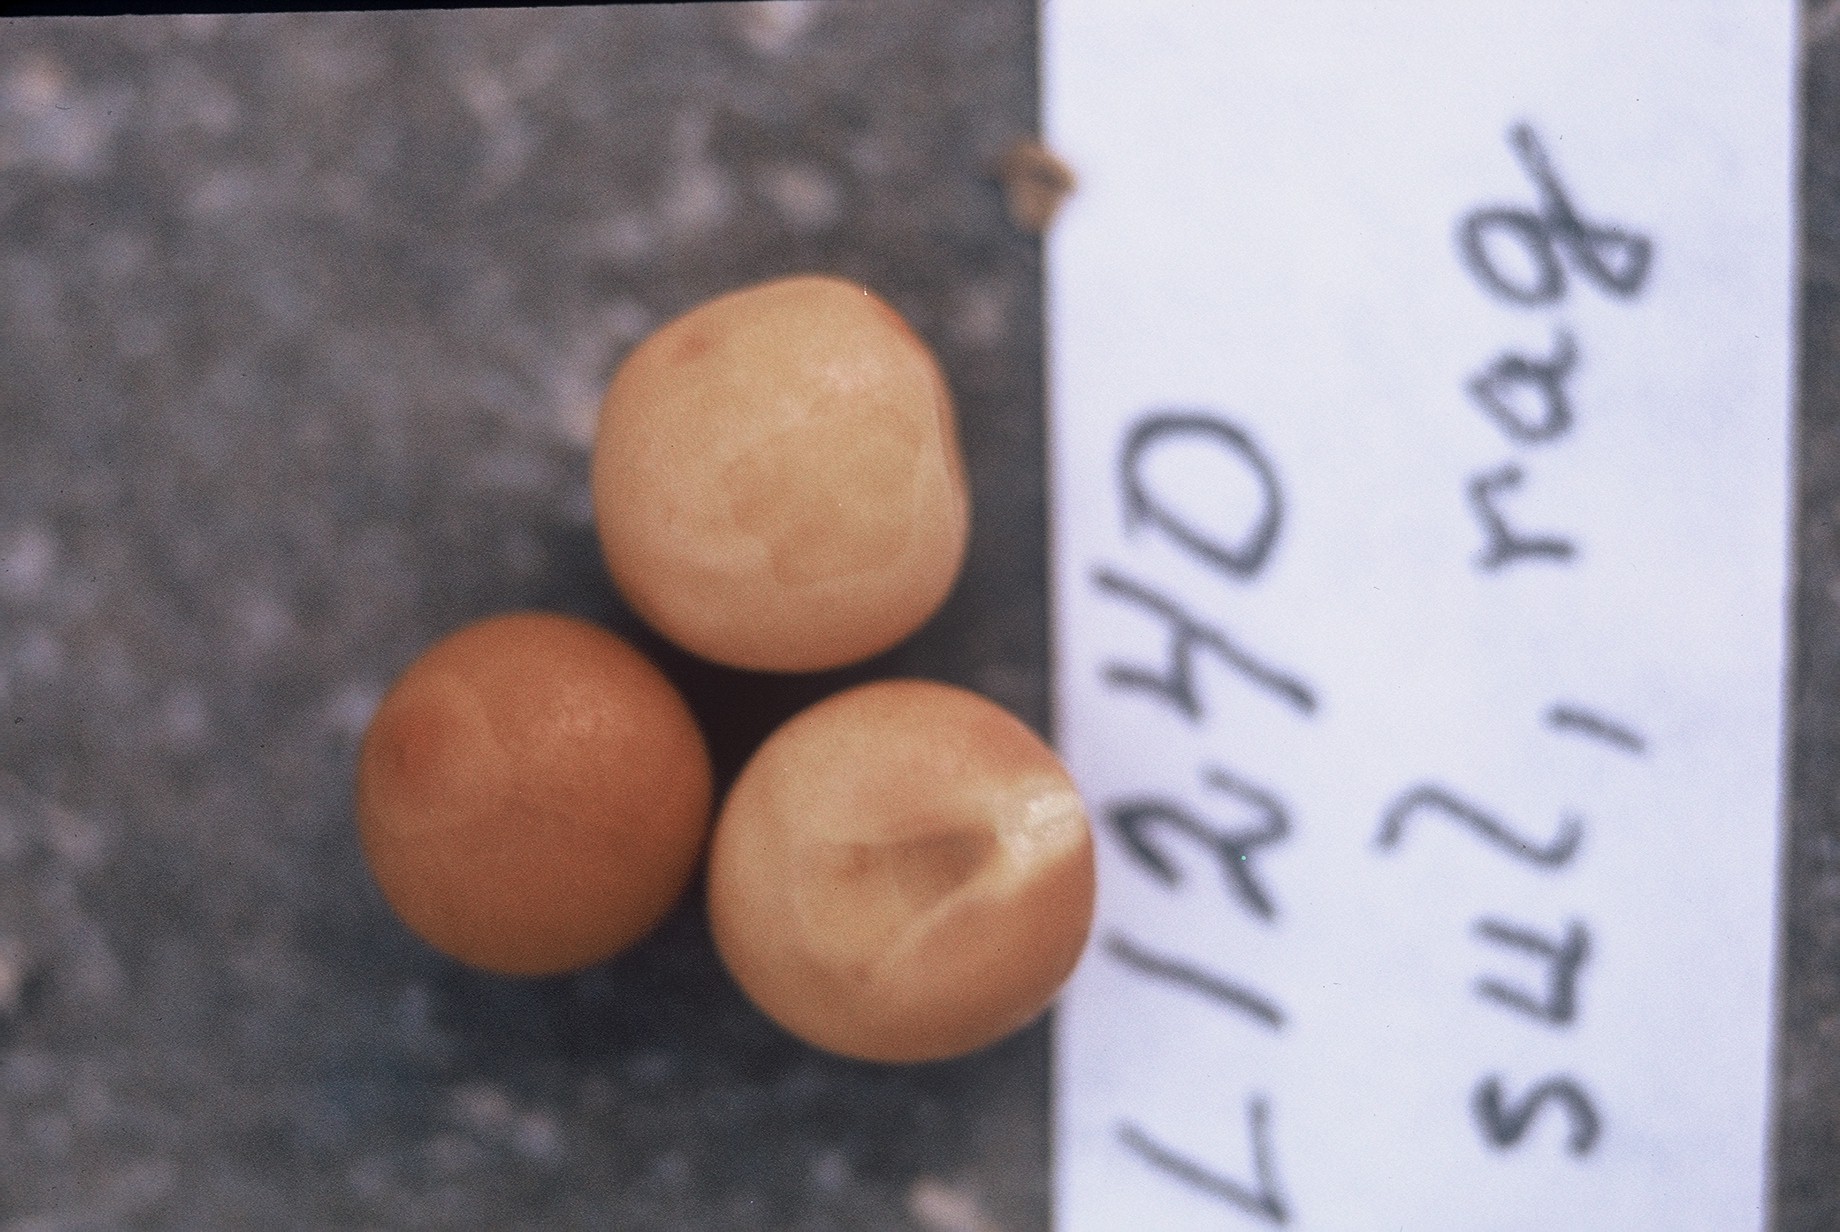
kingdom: Plantae
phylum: Tracheophyta
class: Magnoliopsida
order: Fabales
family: Fabaceae
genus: Lathyrus
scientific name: Lathyrus oleraceus
